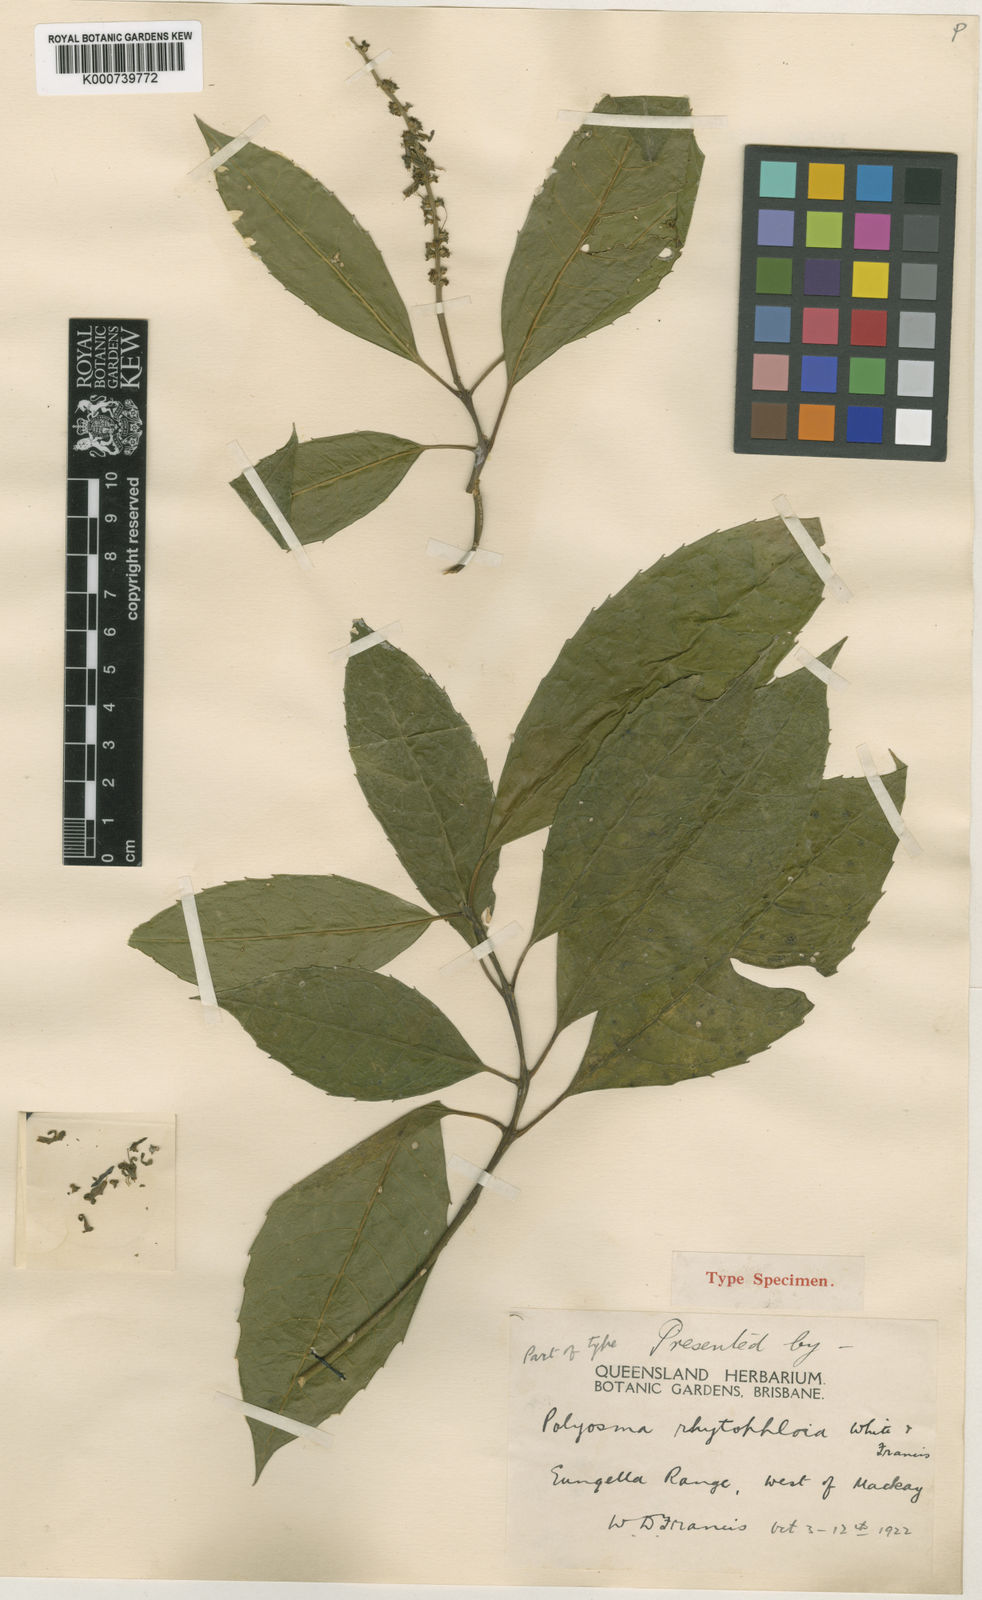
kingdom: Plantae
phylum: Tracheophyta
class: Magnoliopsida
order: Escalloniales
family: Escalloniaceae
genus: Polyosma
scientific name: Polyosma
